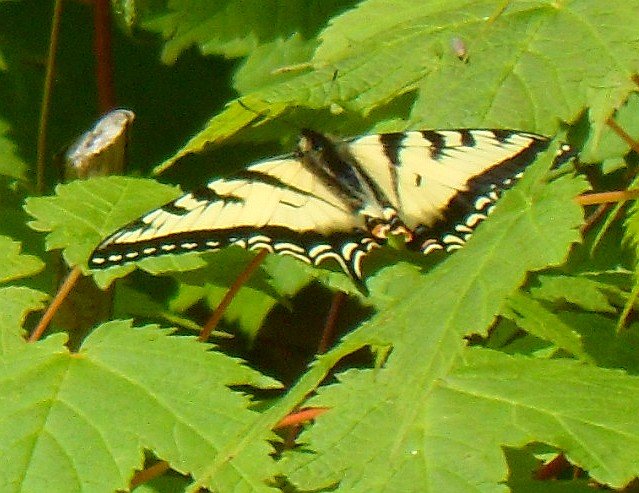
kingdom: Animalia
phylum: Arthropoda
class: Insecta
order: Lepidoptera
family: Papilionidae
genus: Pterourus
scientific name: Pterourus canadensis
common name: Canadian Tiger Swallowtail
